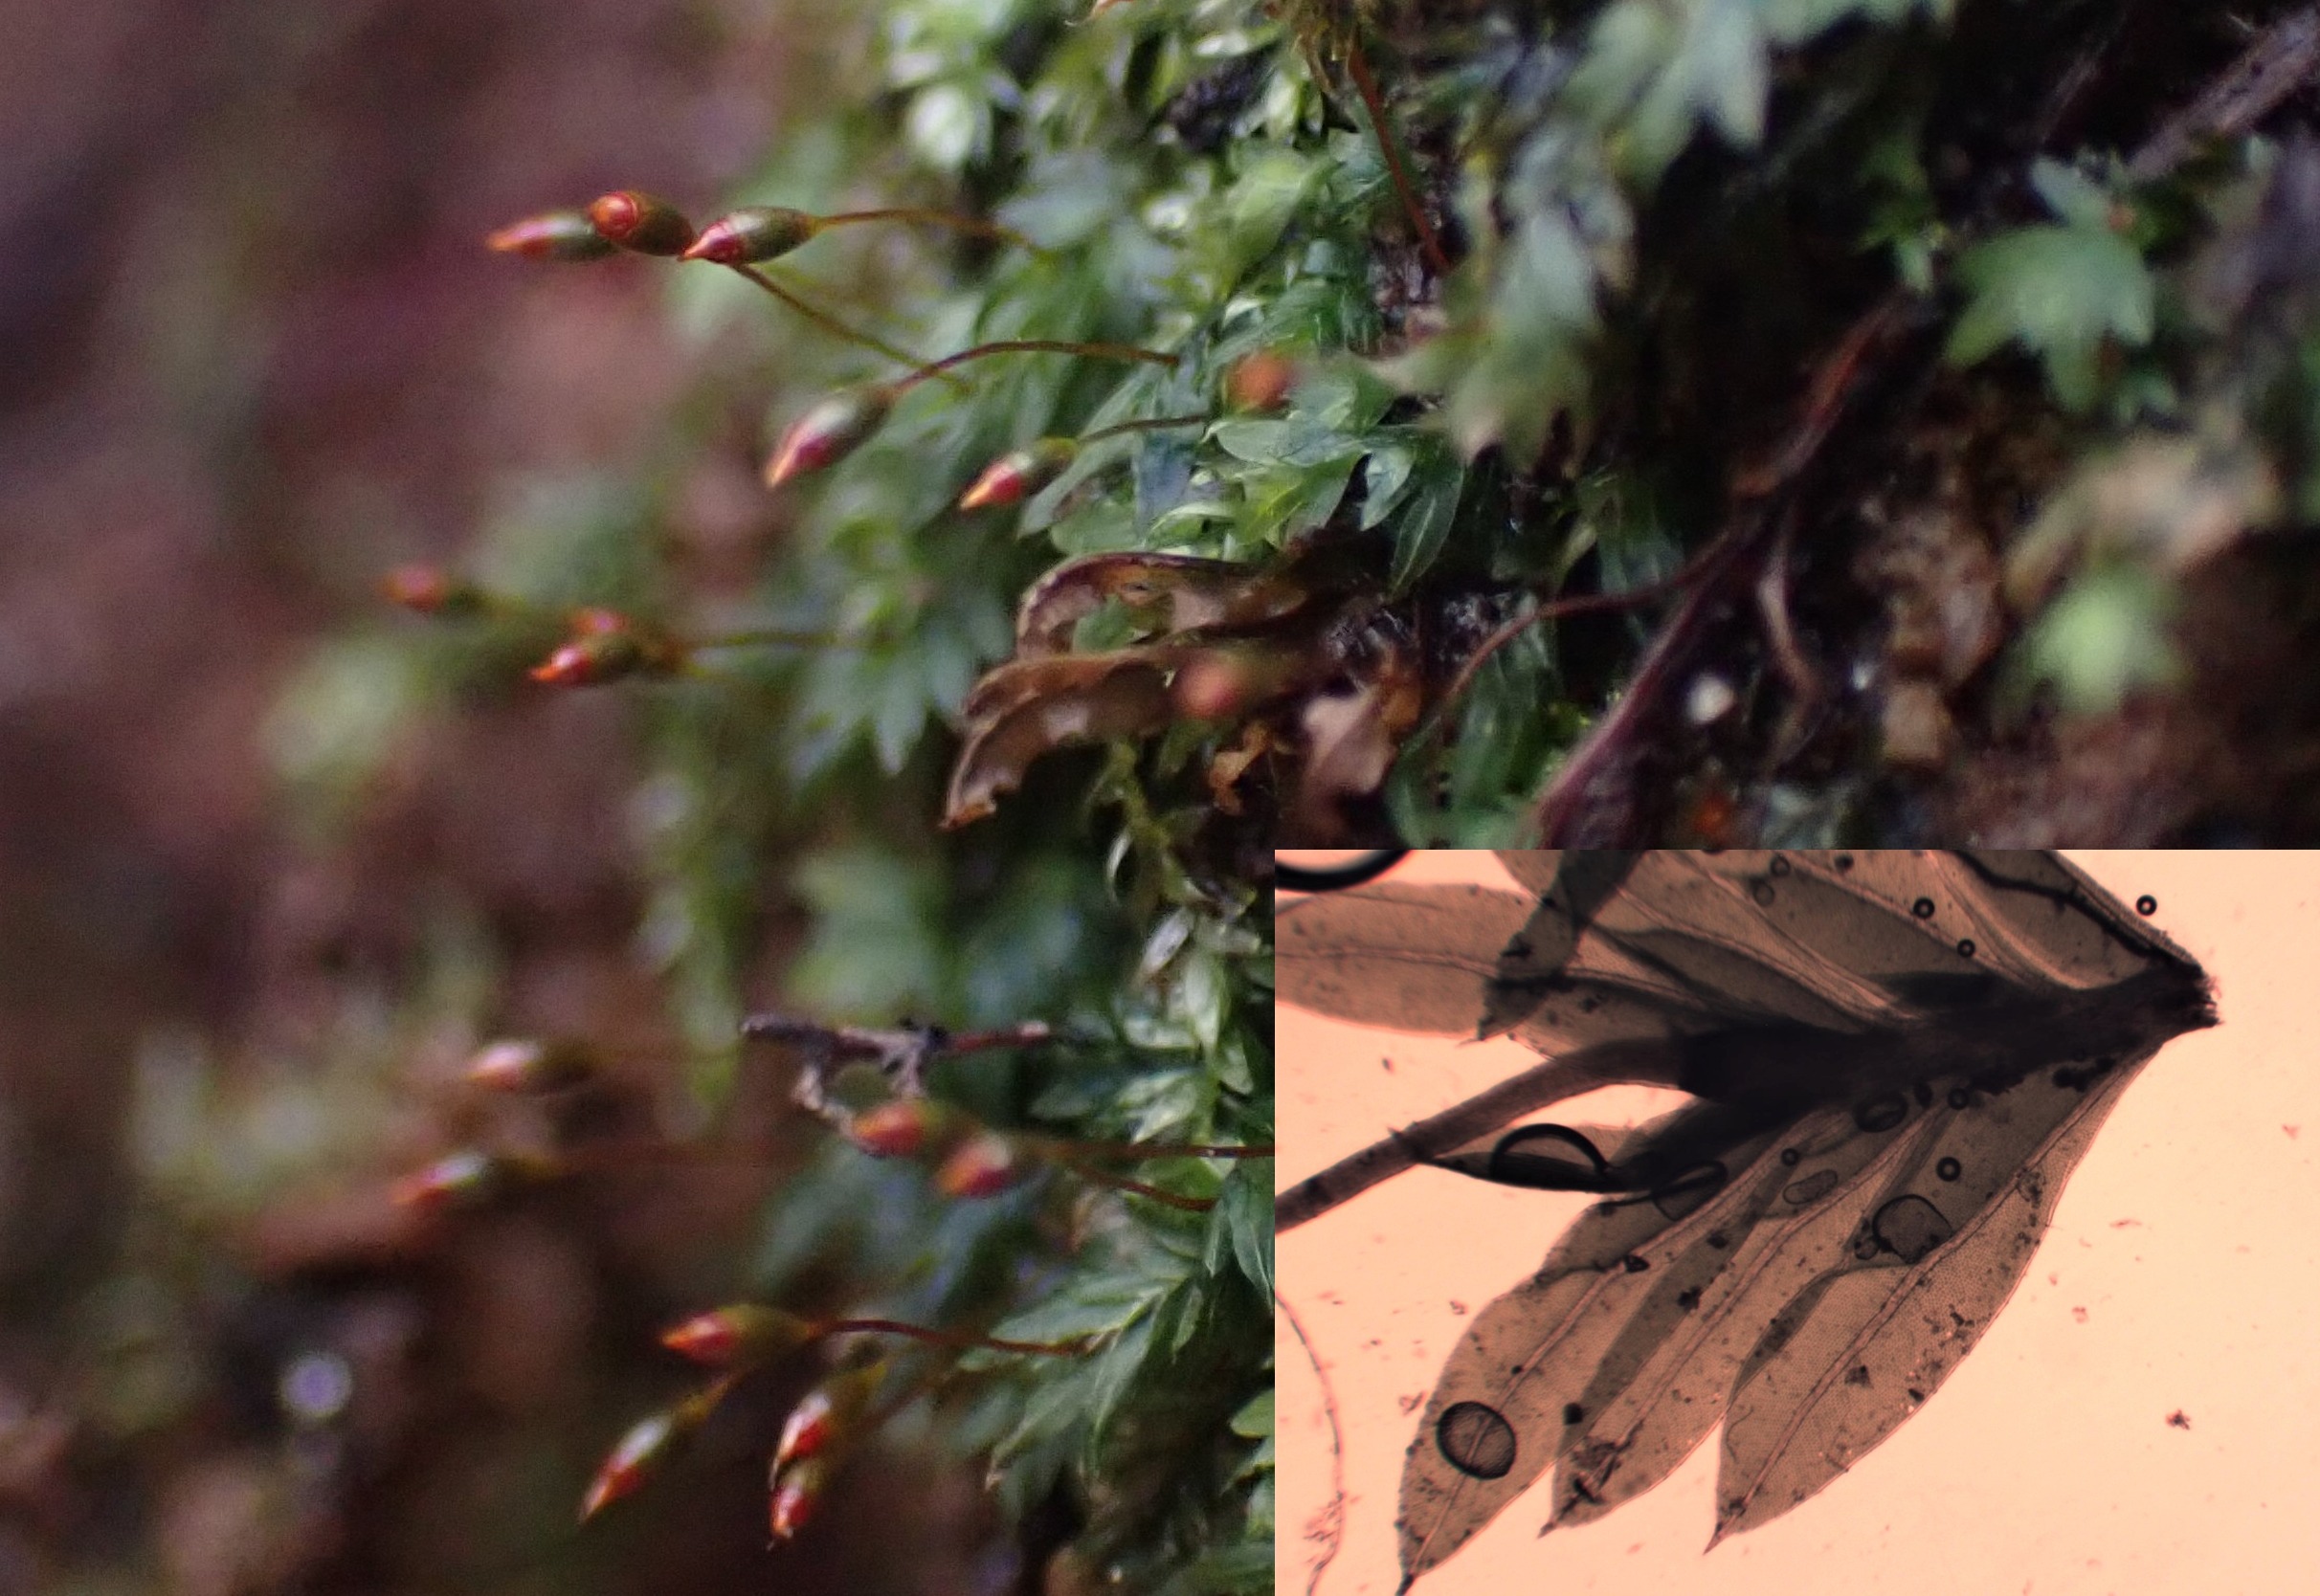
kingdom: Plantae
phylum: Bryophyta
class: Bryopsida
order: Dicranales
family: Fissidentaceae
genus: Fissidens
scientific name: Fissidens bryoides
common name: Top-rademos
